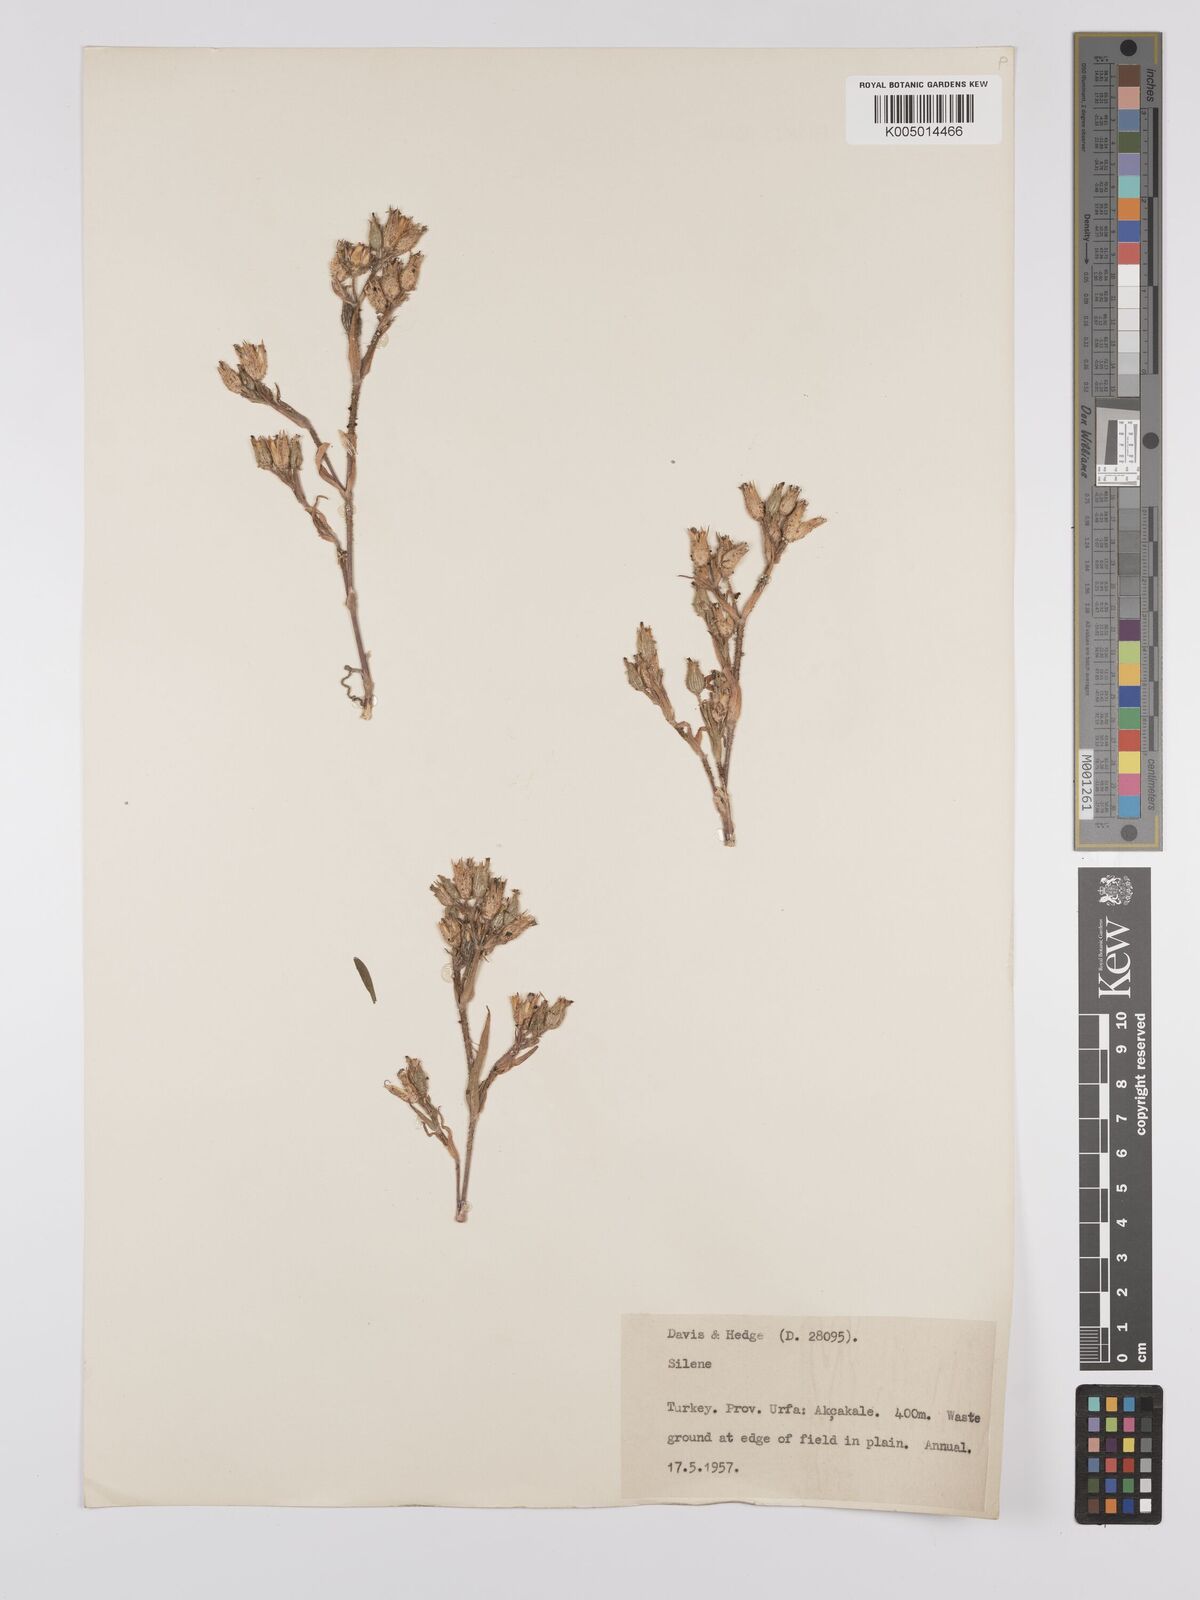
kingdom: Plantae
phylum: Tracheophyta
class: Magnoliopsida
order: Caryophyllales
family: Caryophyllaceae
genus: Silene
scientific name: Silene
